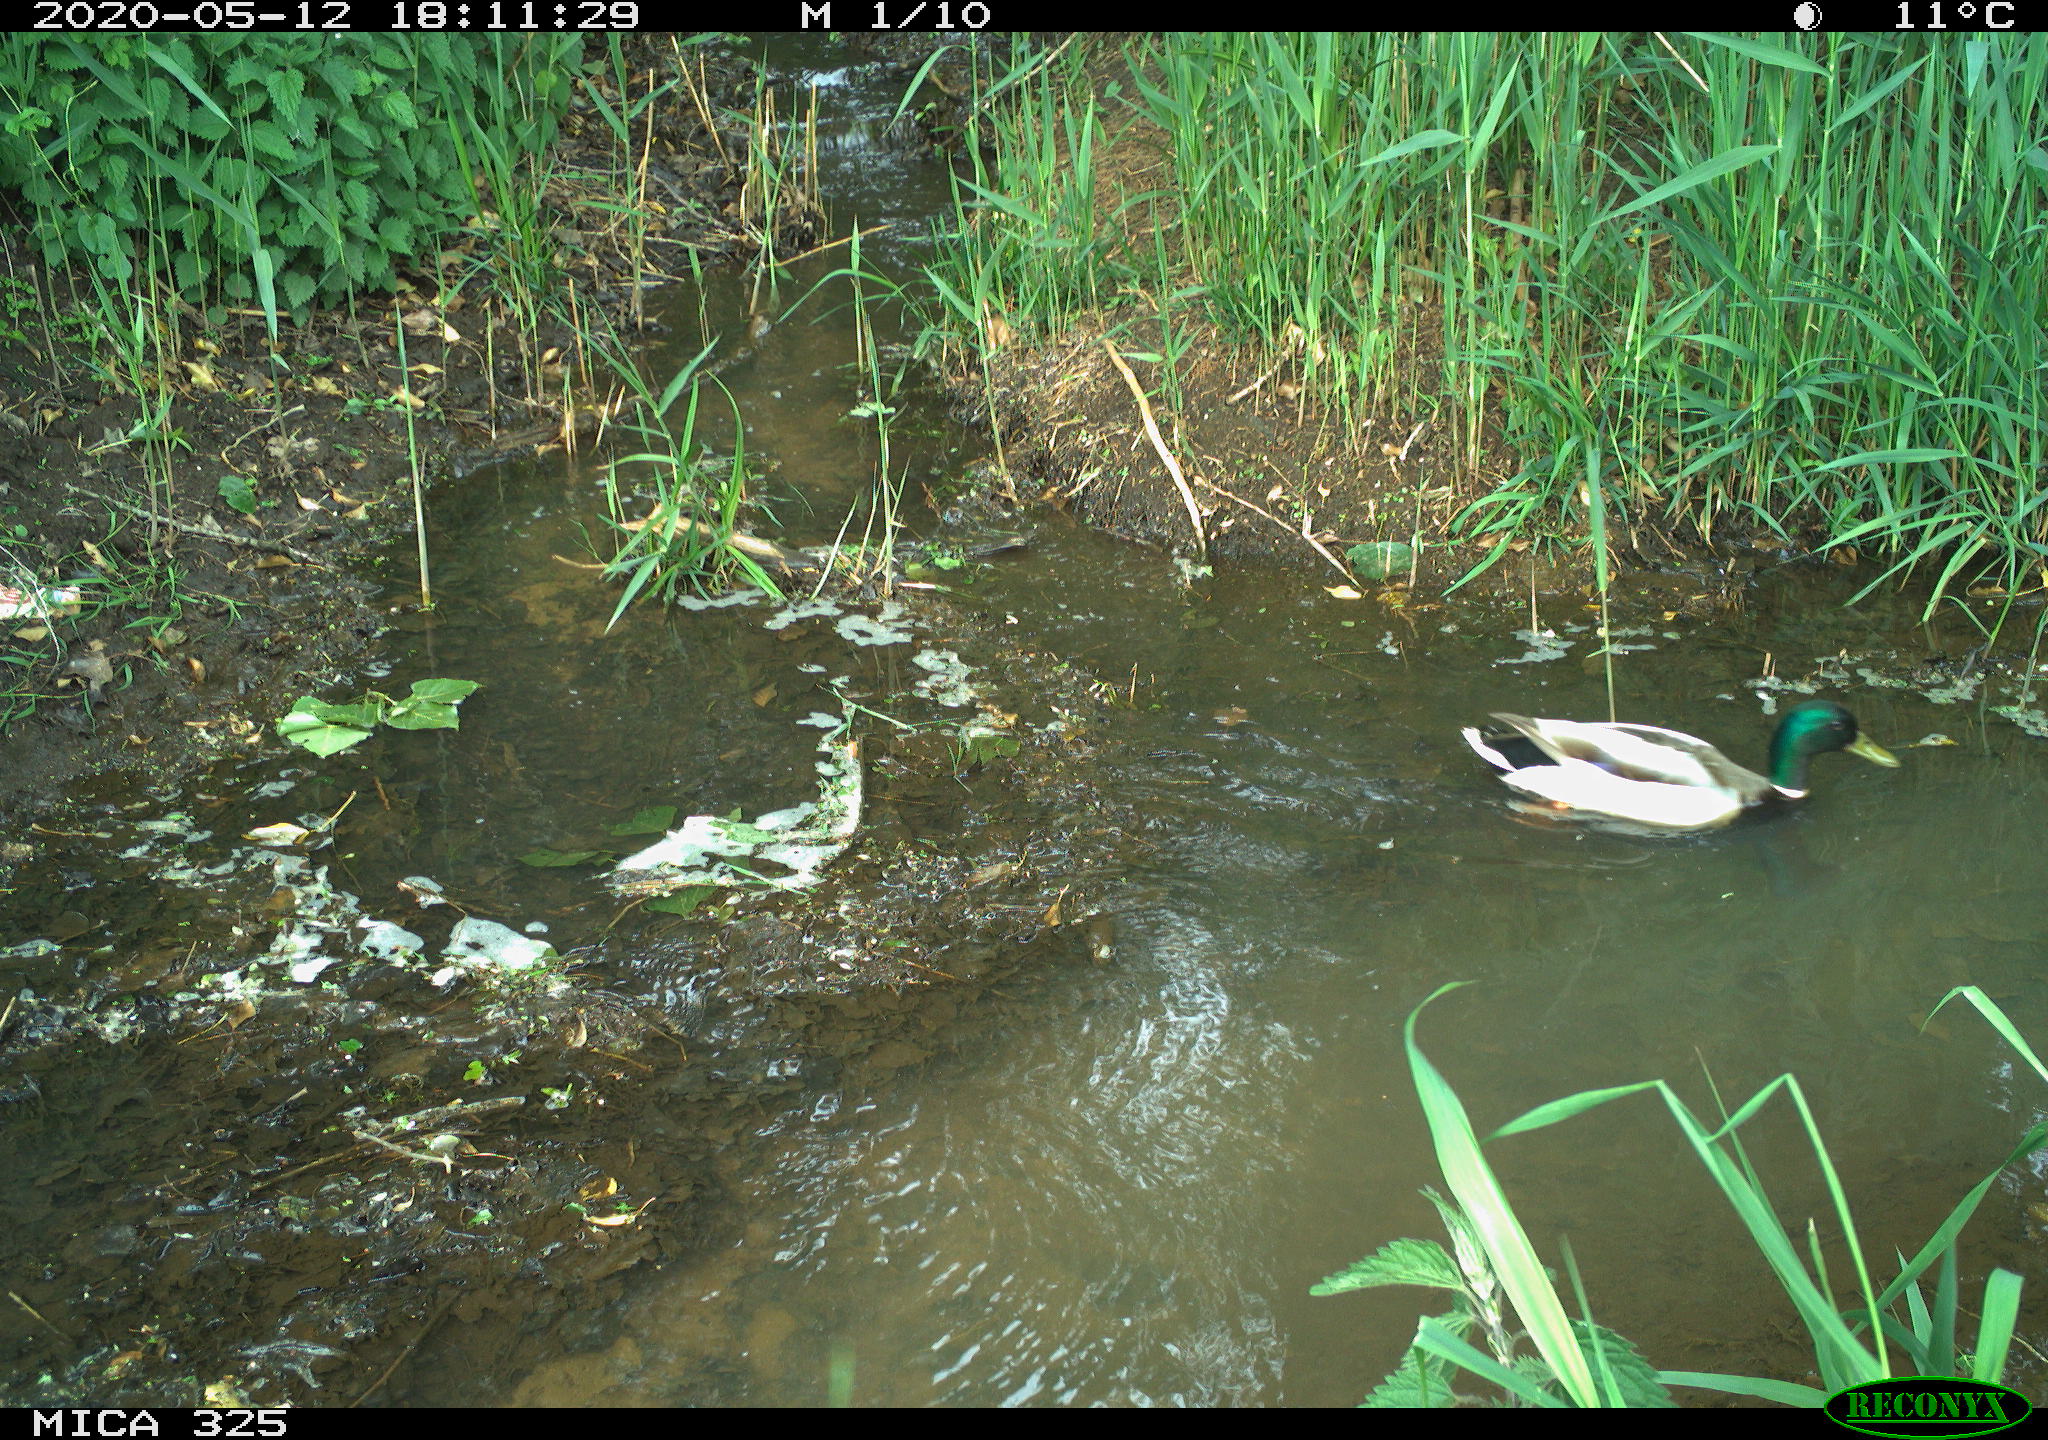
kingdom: Animalia
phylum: Chordata
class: Aves
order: Anseriformes
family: Anatidae
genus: Anas
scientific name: Anas platyrhynchos
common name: Mallard
